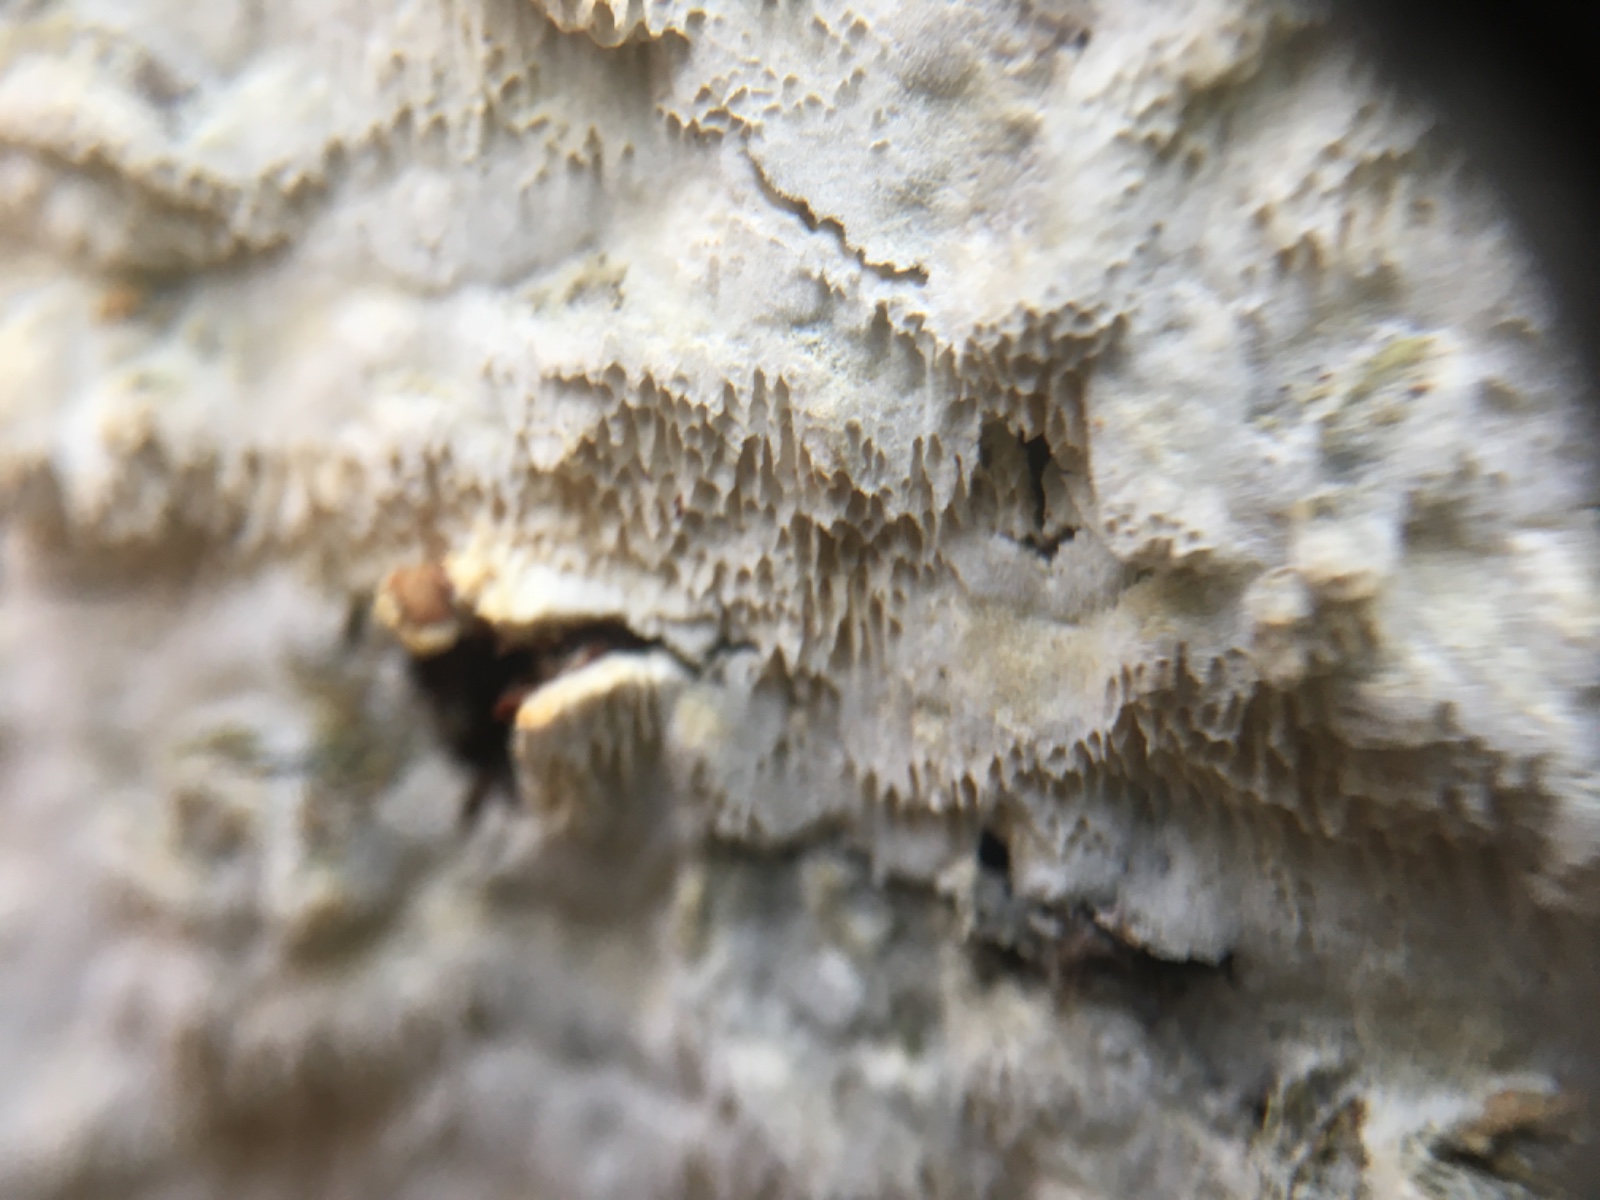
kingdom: Fungi
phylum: Basidiomycota
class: Agaricomycetes
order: Hymenochaetales
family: Schizoporaceae
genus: Xylodon
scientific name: Xylodon
